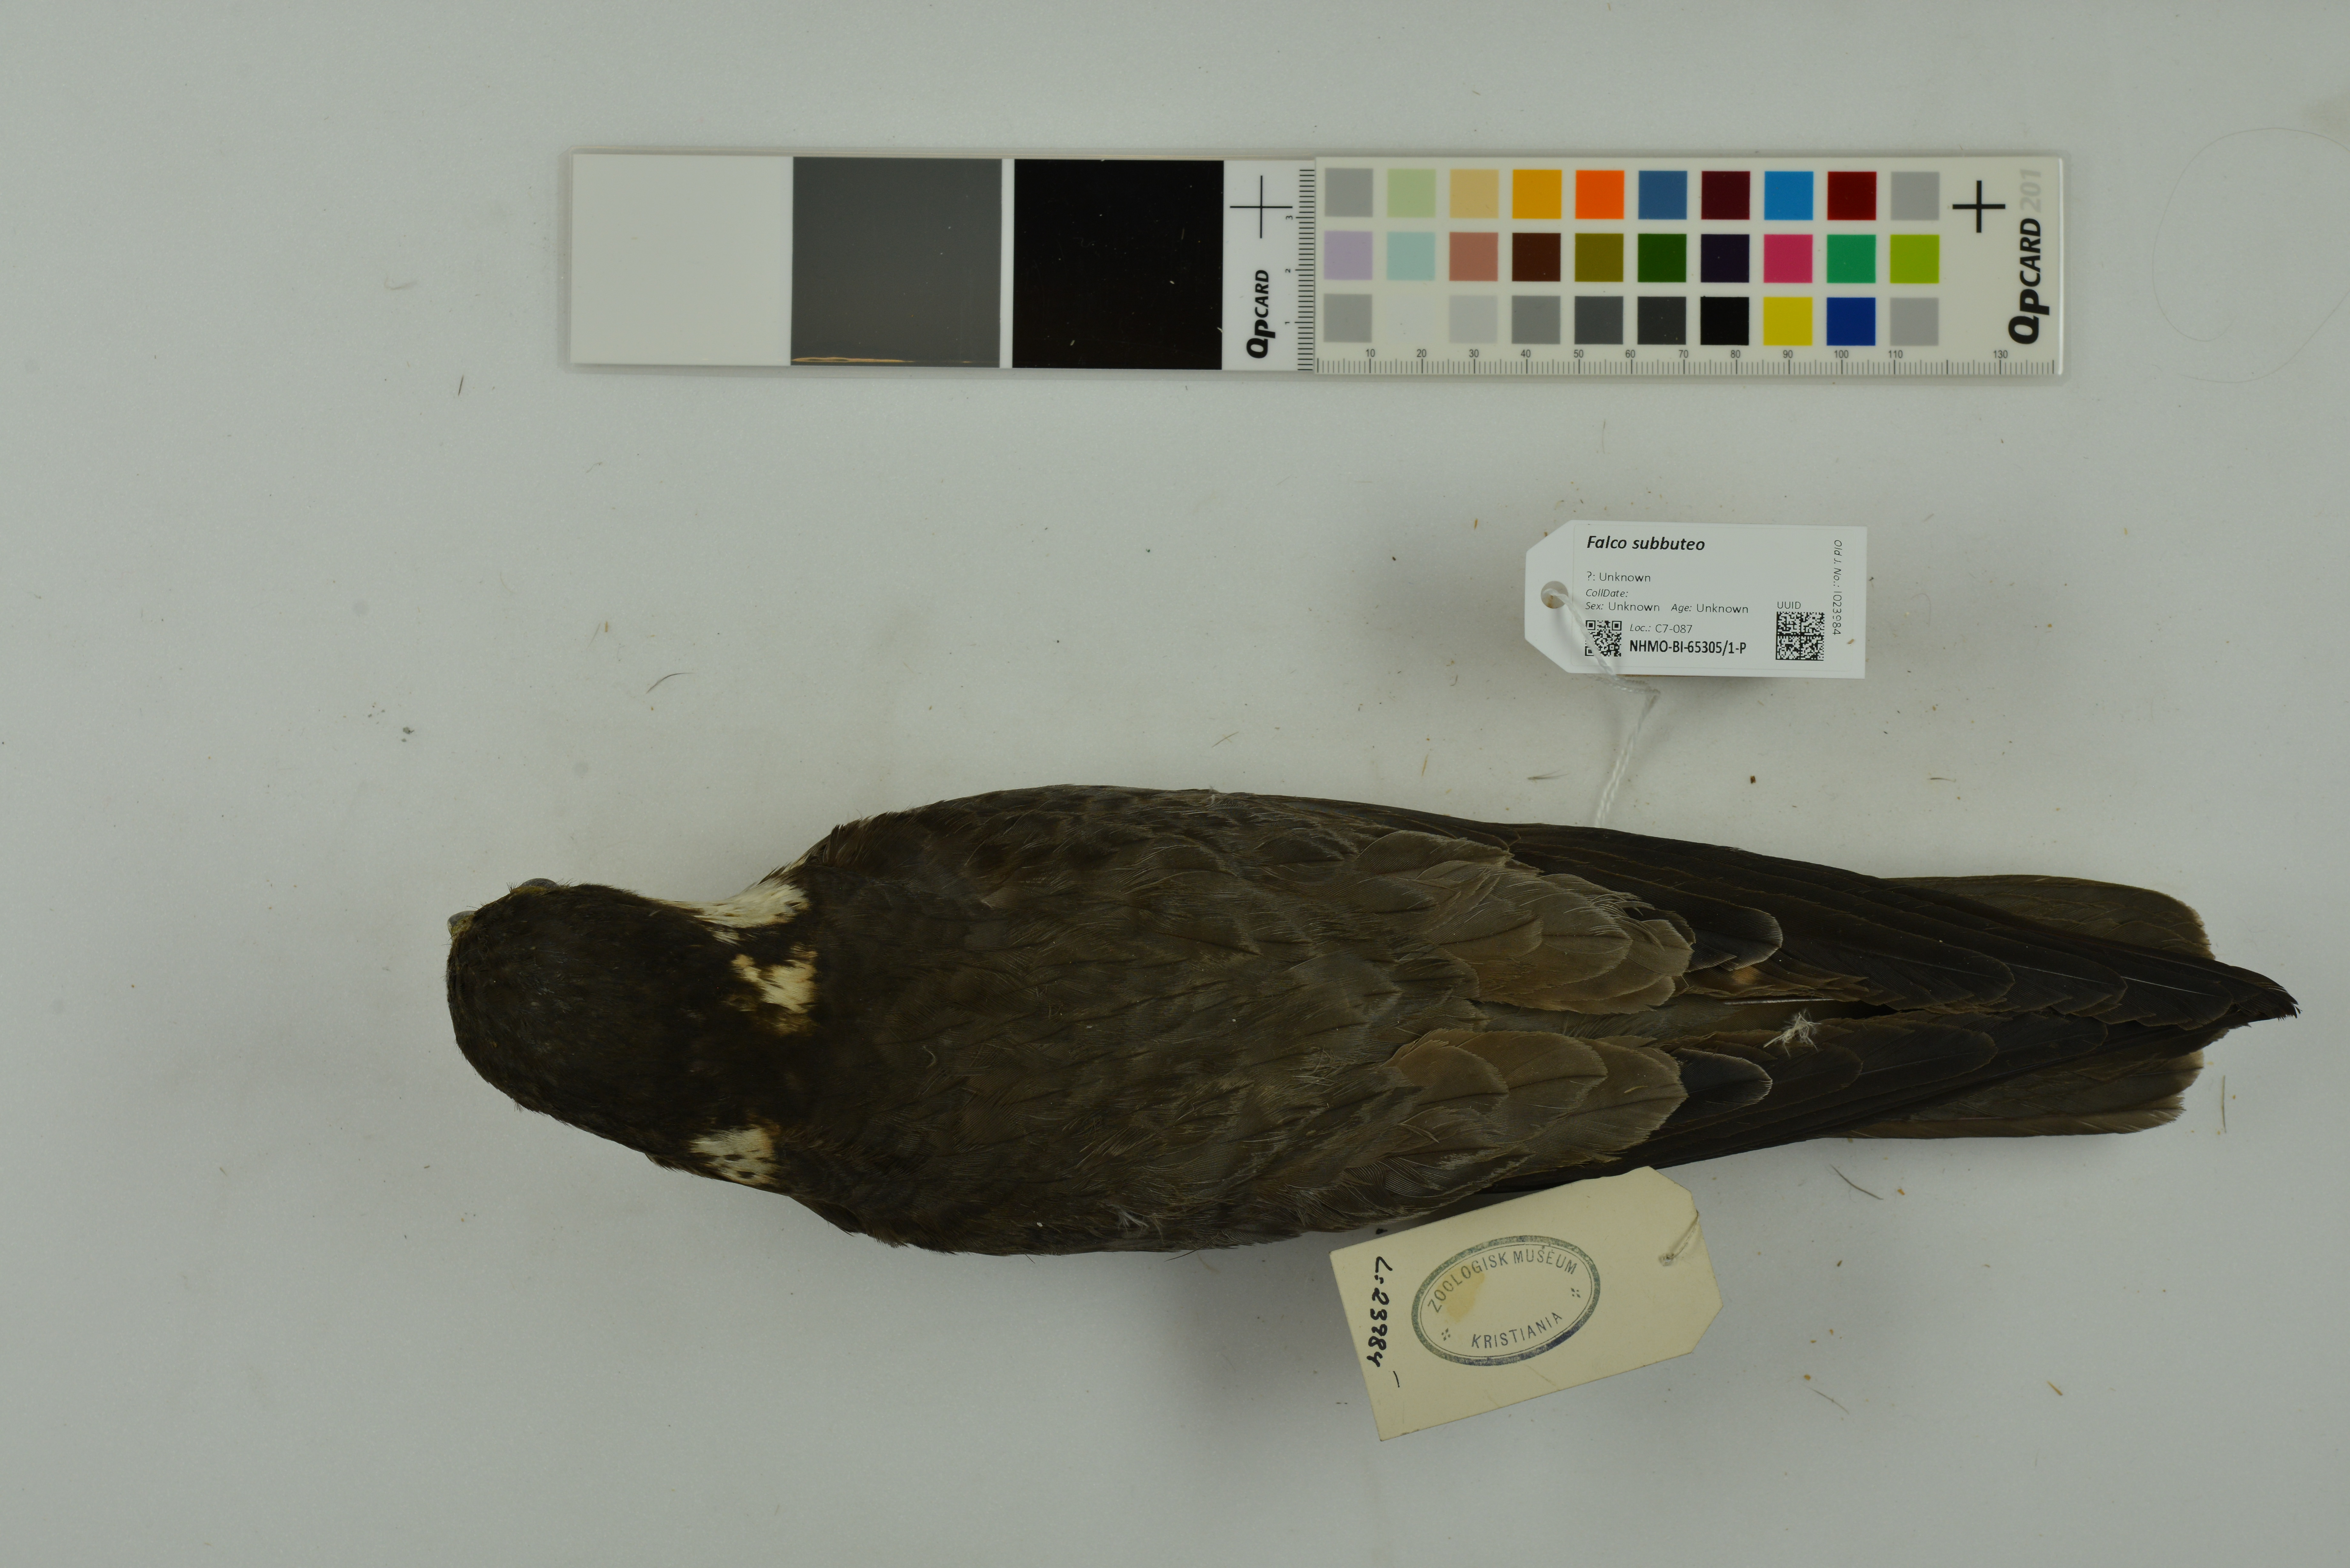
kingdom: Animalia
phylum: Chordata
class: Aves
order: Falconiformes
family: Falconidae
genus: Falco
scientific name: Falco subbuteo
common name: Eurasian hobby
